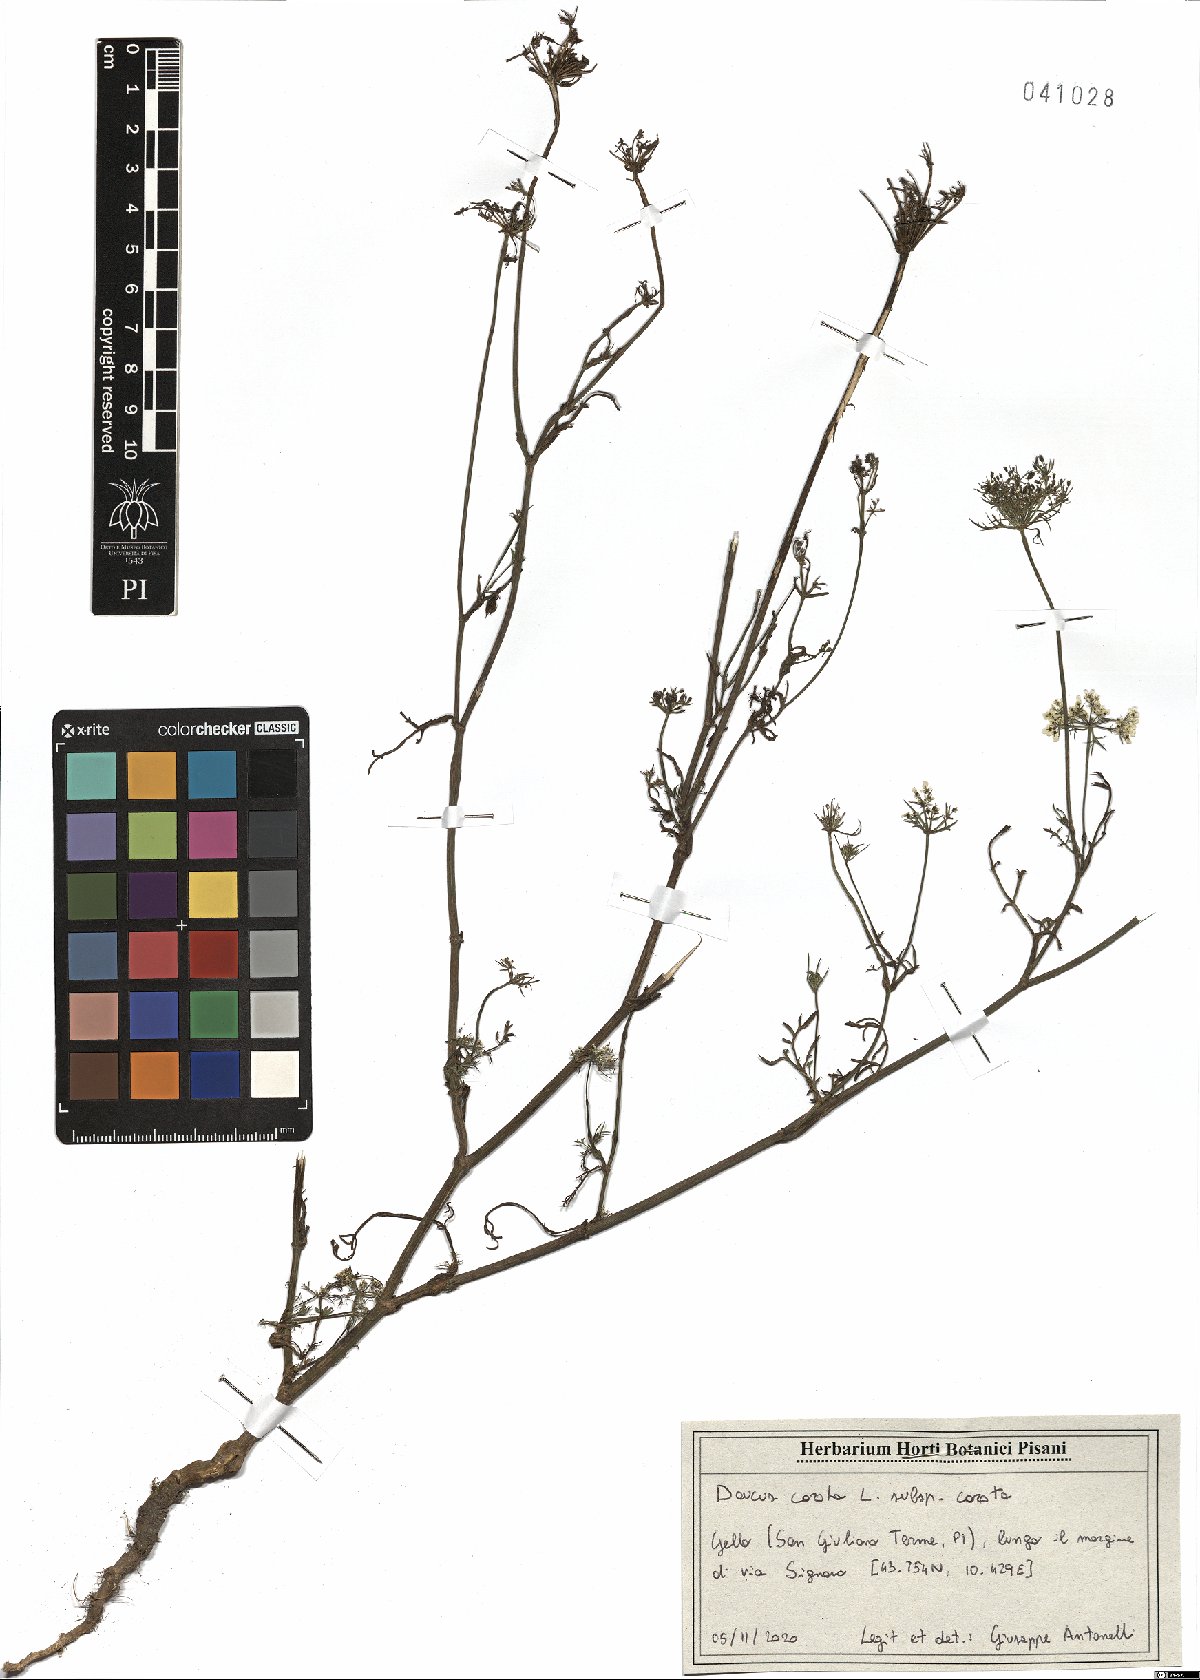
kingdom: Plantae
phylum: Tracheophyta
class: Magnoliopsida
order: Apiales
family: Apiaceae
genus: Daucus
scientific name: Daucus carota
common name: Wild carrot
